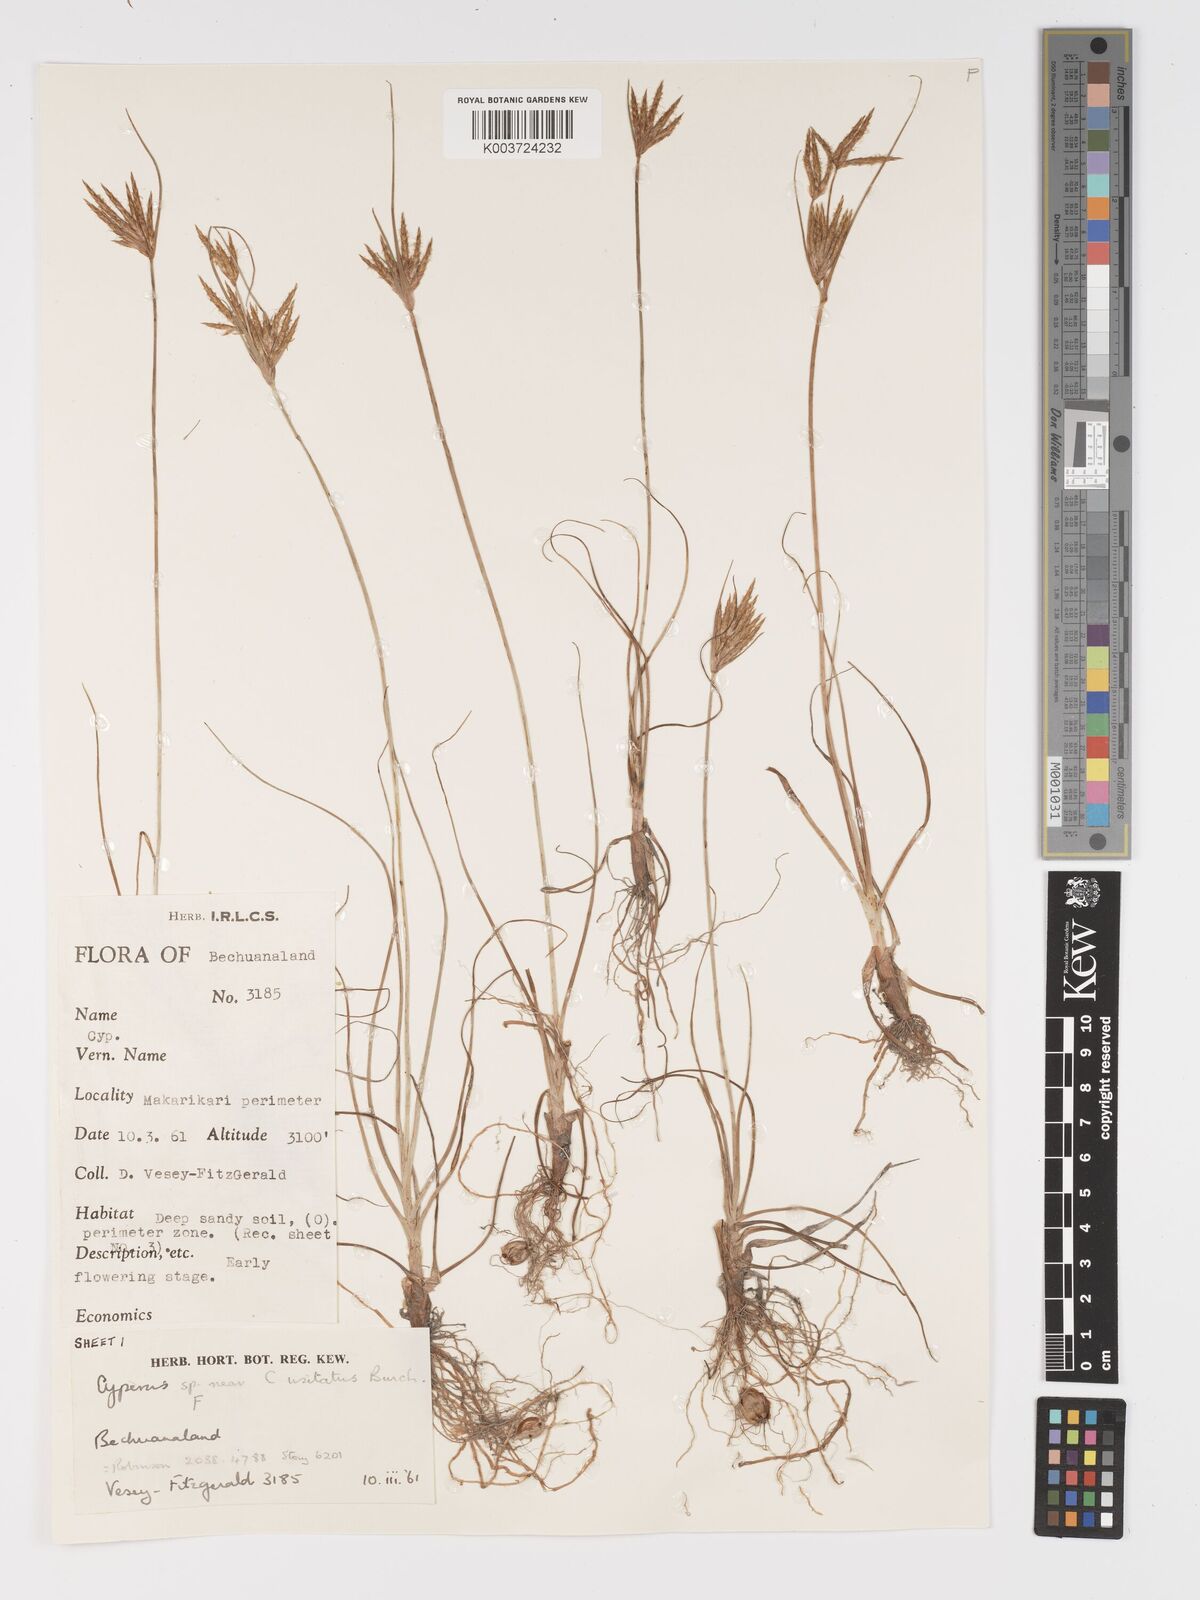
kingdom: Plantae
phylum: Tracheophyta
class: Liliopsida
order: Poales
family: Cyperaceae
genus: Cyperus
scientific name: Cyperus palmatus
